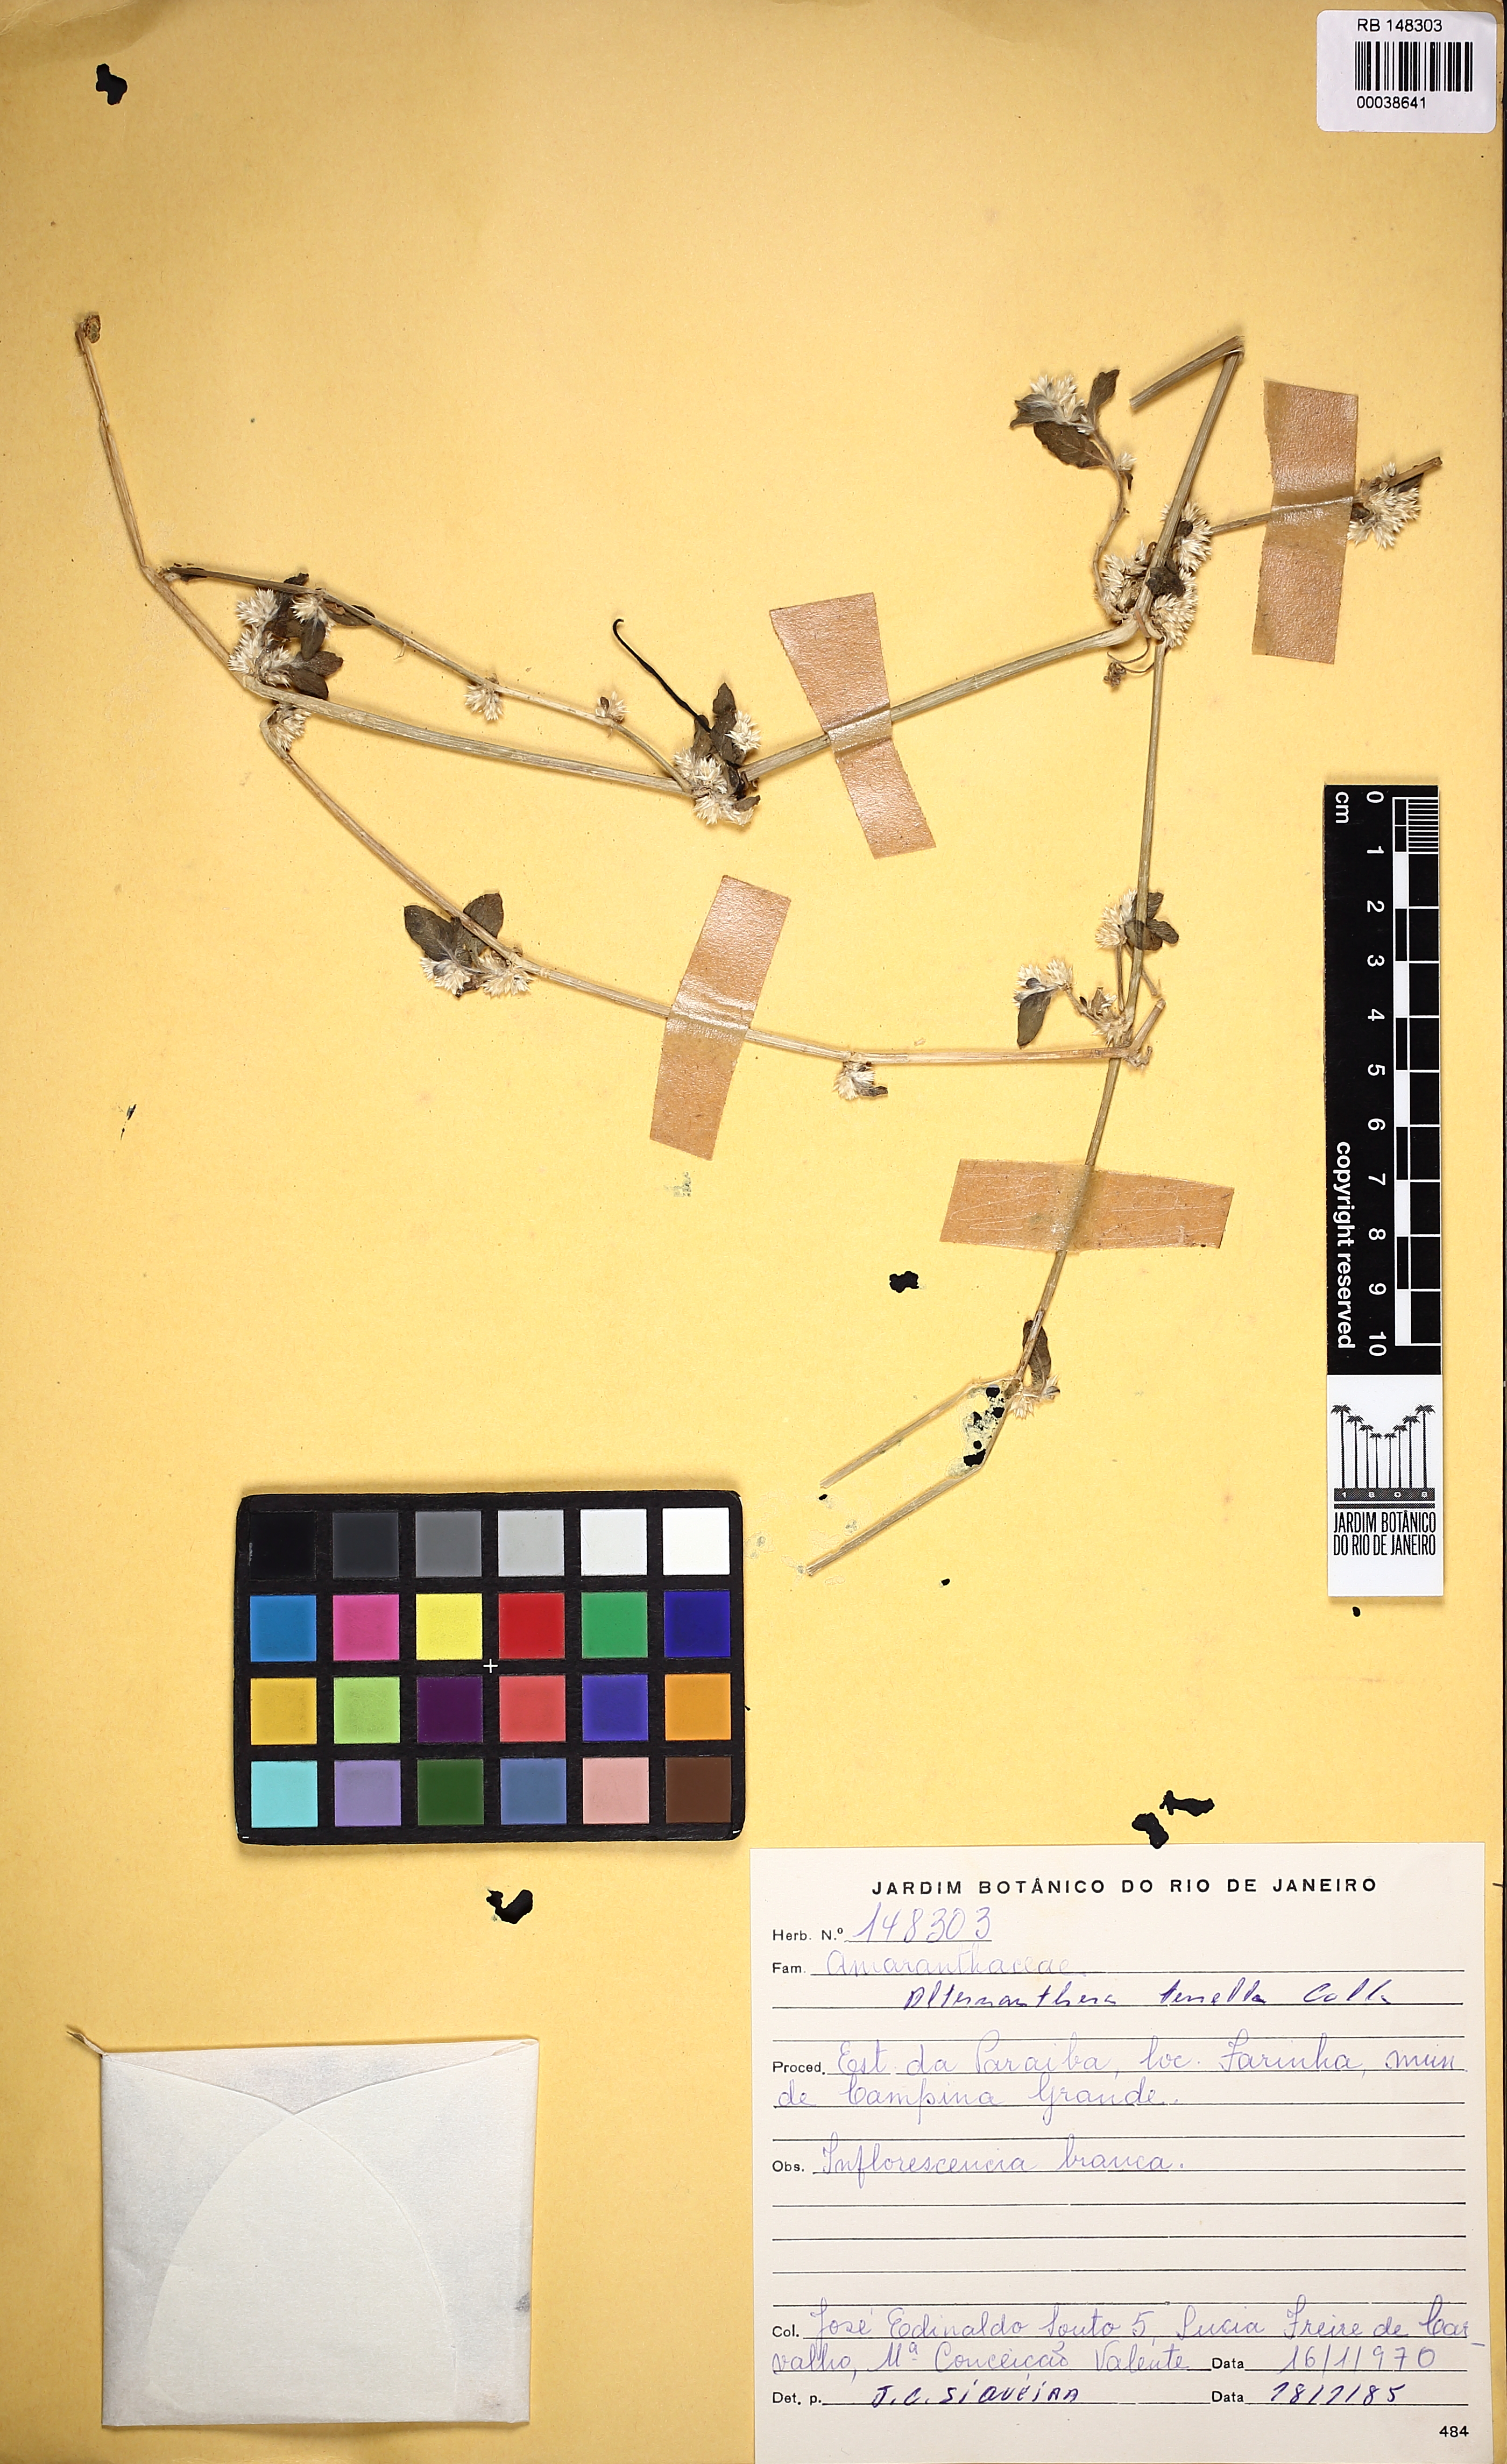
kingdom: Plantae
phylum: Tracheophyta
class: Magnoliopsida
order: Caryophyllales
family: Amaranthaceae
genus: Alternanthera
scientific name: Alternanthera ficoidea
